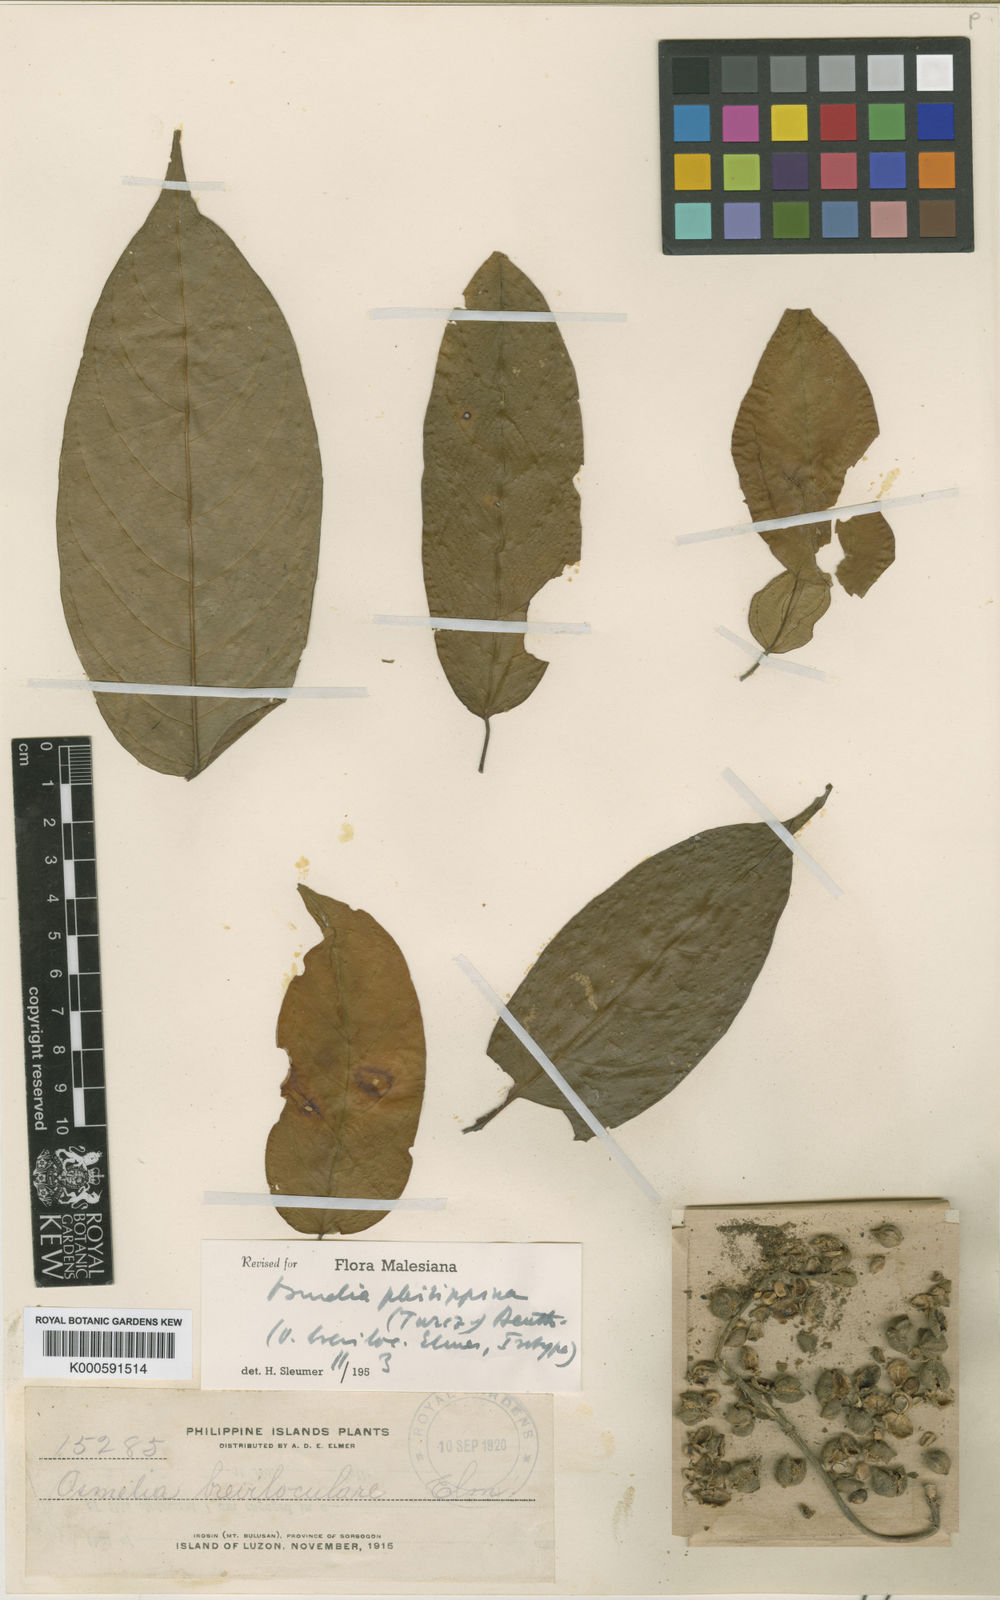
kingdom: Plantae
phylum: Tracheophyta
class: Magnoliopsida
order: Malpighiales
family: Salicaceae
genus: Osmelia
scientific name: Osmelia
